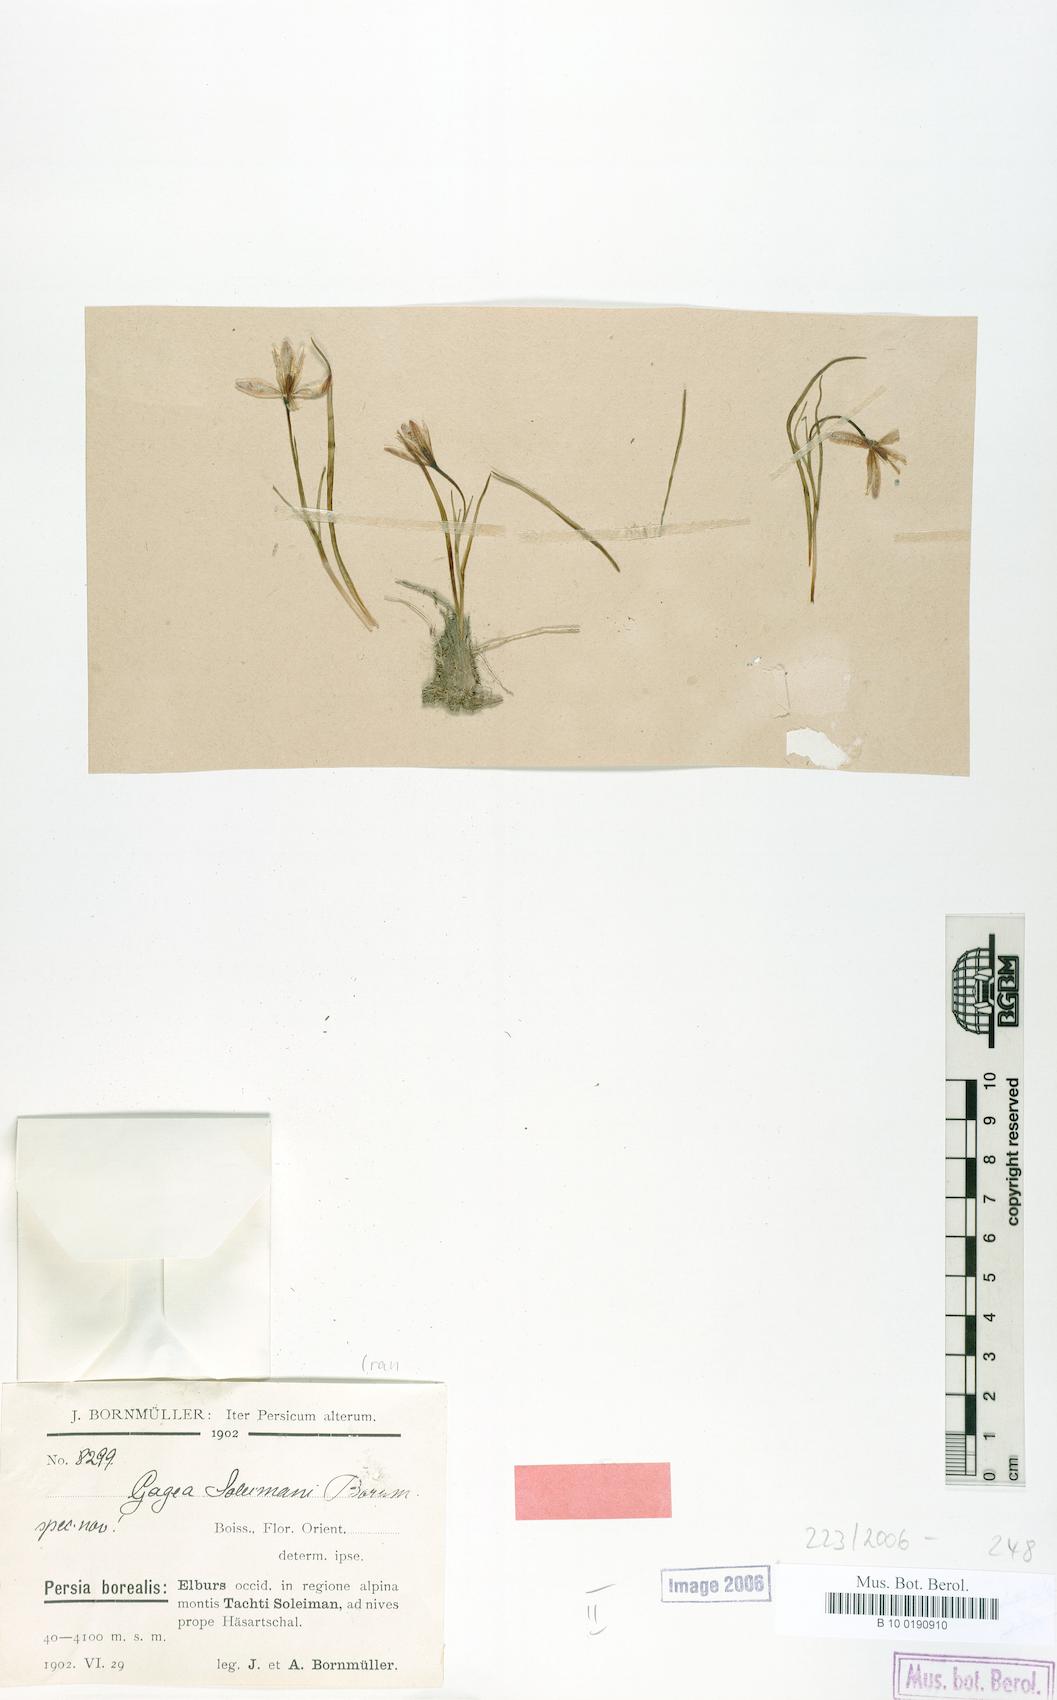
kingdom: Plantae
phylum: Tracheophyta
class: Liliopsida
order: Liliales
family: Liliaceae
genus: Gagea
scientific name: Gagea uliginosa
